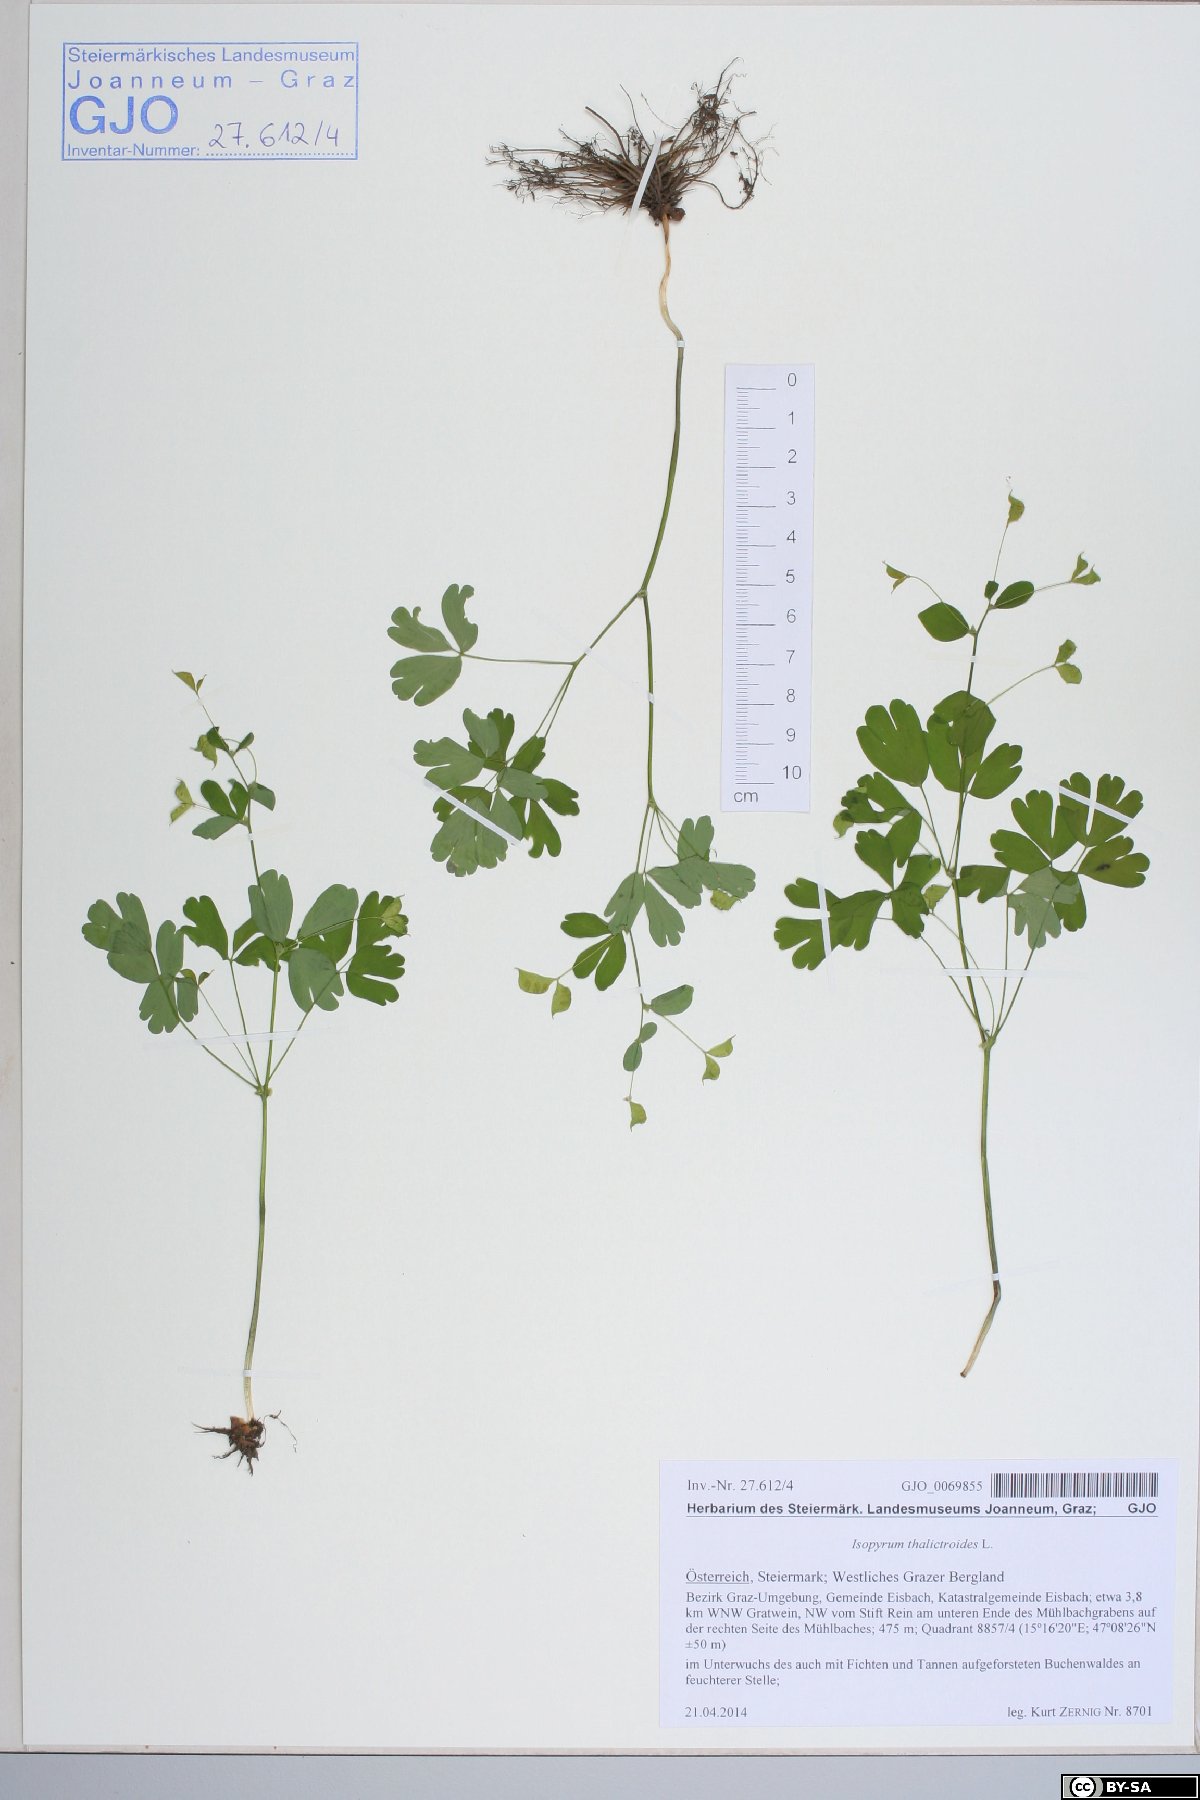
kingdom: Plantae
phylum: Tracheophyta
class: Magnoliopsida
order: Ranunculales
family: Ranunculaceae
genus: Isopyrum
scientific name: Isopyrum thalictroides
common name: Isopyrum
